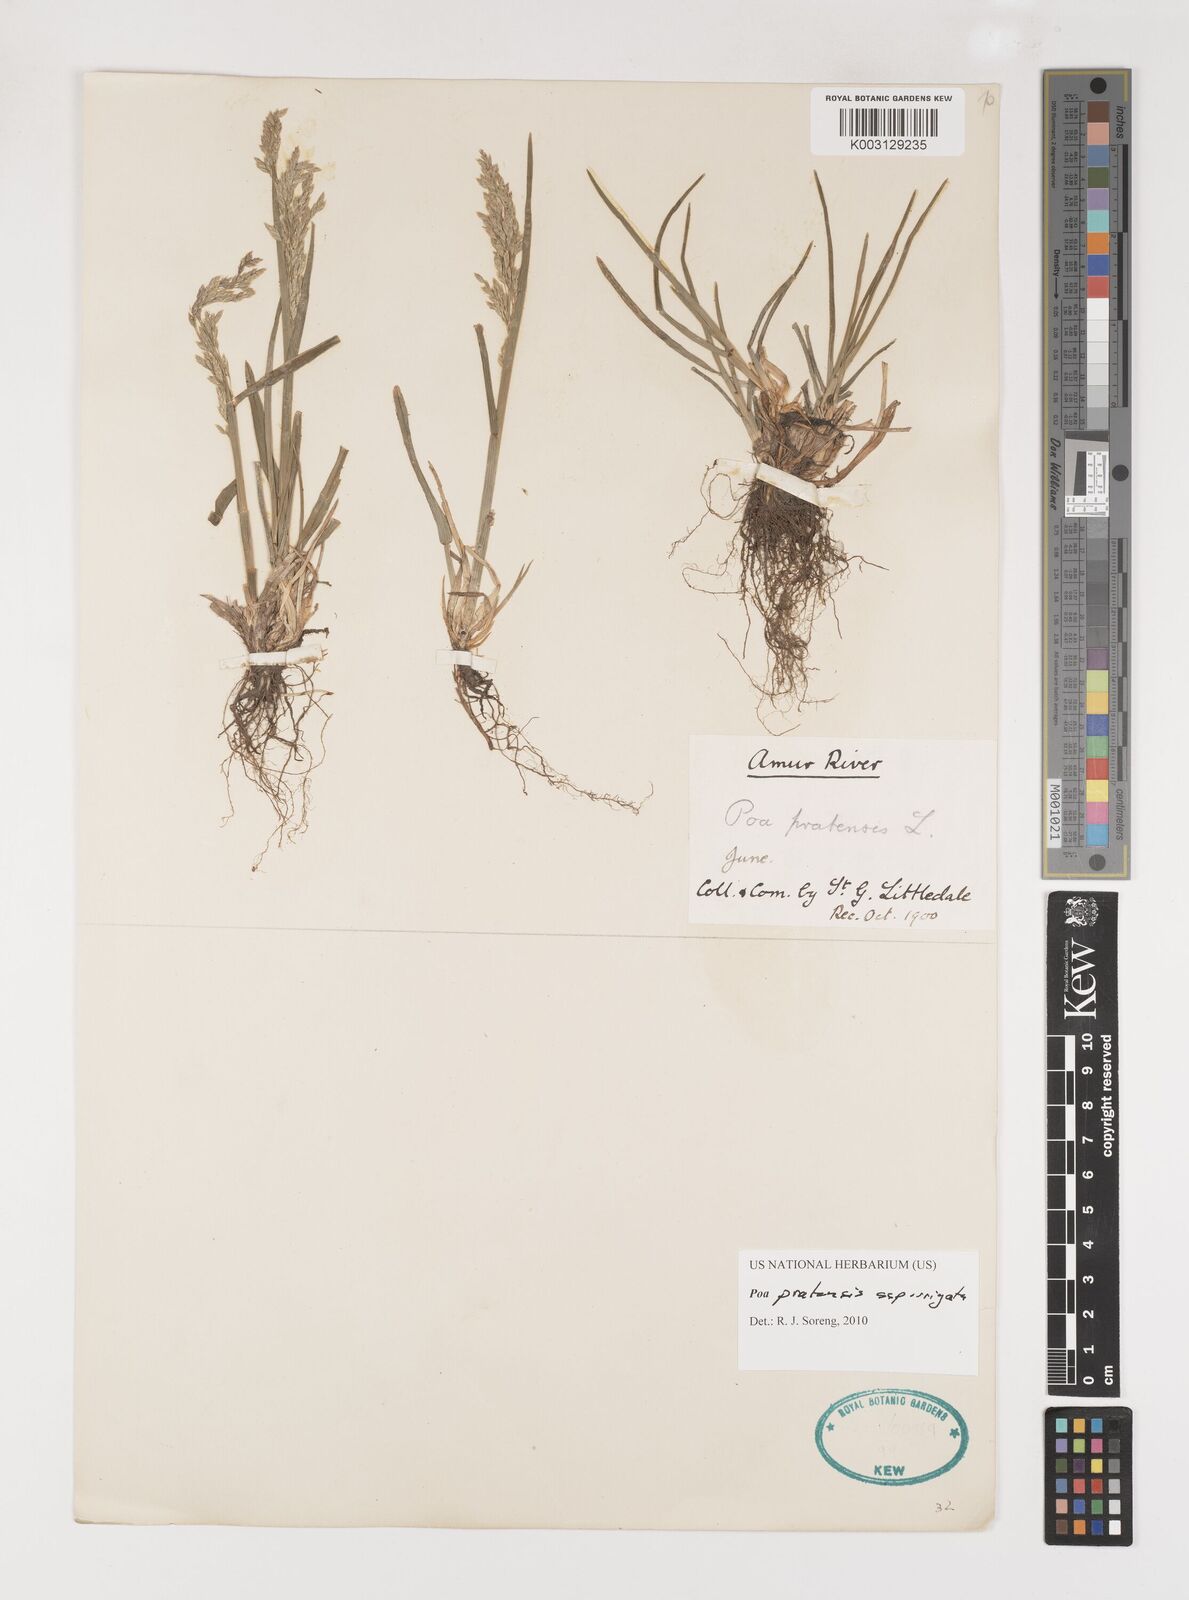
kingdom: Plantae
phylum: Tracheophyta
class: Liliopsida
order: Poales
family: Poaceae
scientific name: Poaceae
